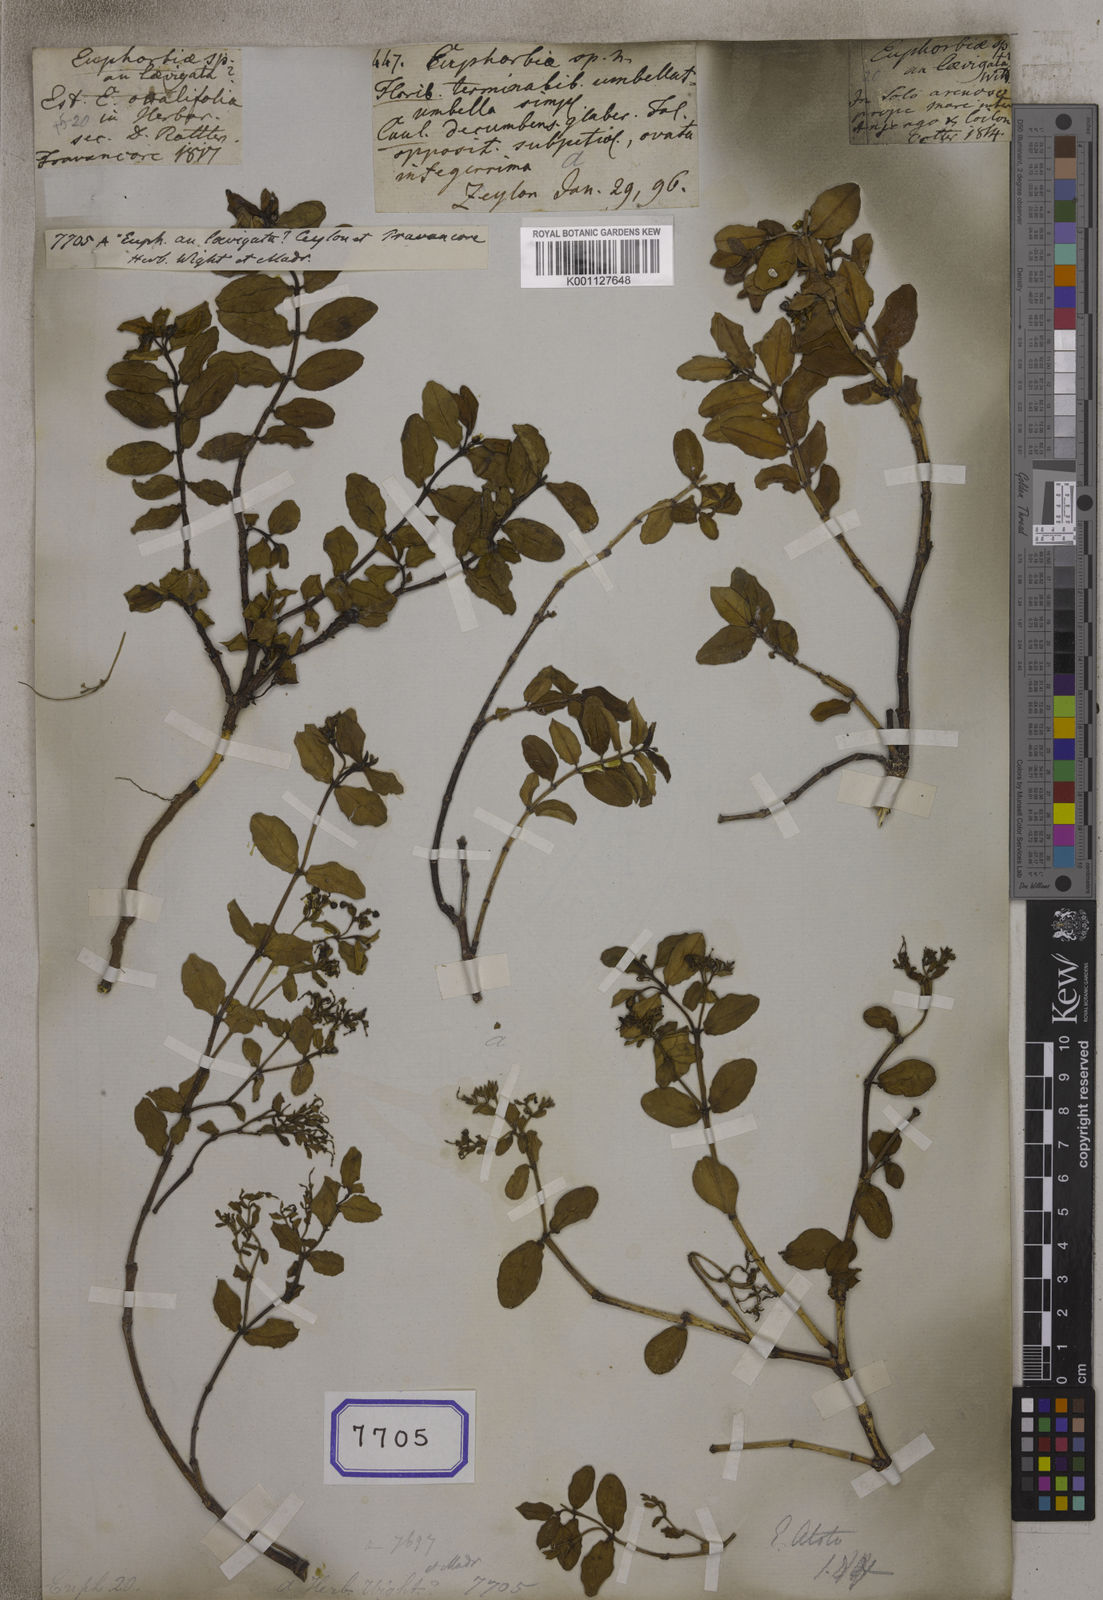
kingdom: Plantae
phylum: Tracheophyta
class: Magnoliopsida
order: Malpighiales
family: Euphorbiaceae
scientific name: Euphorbiaceae
